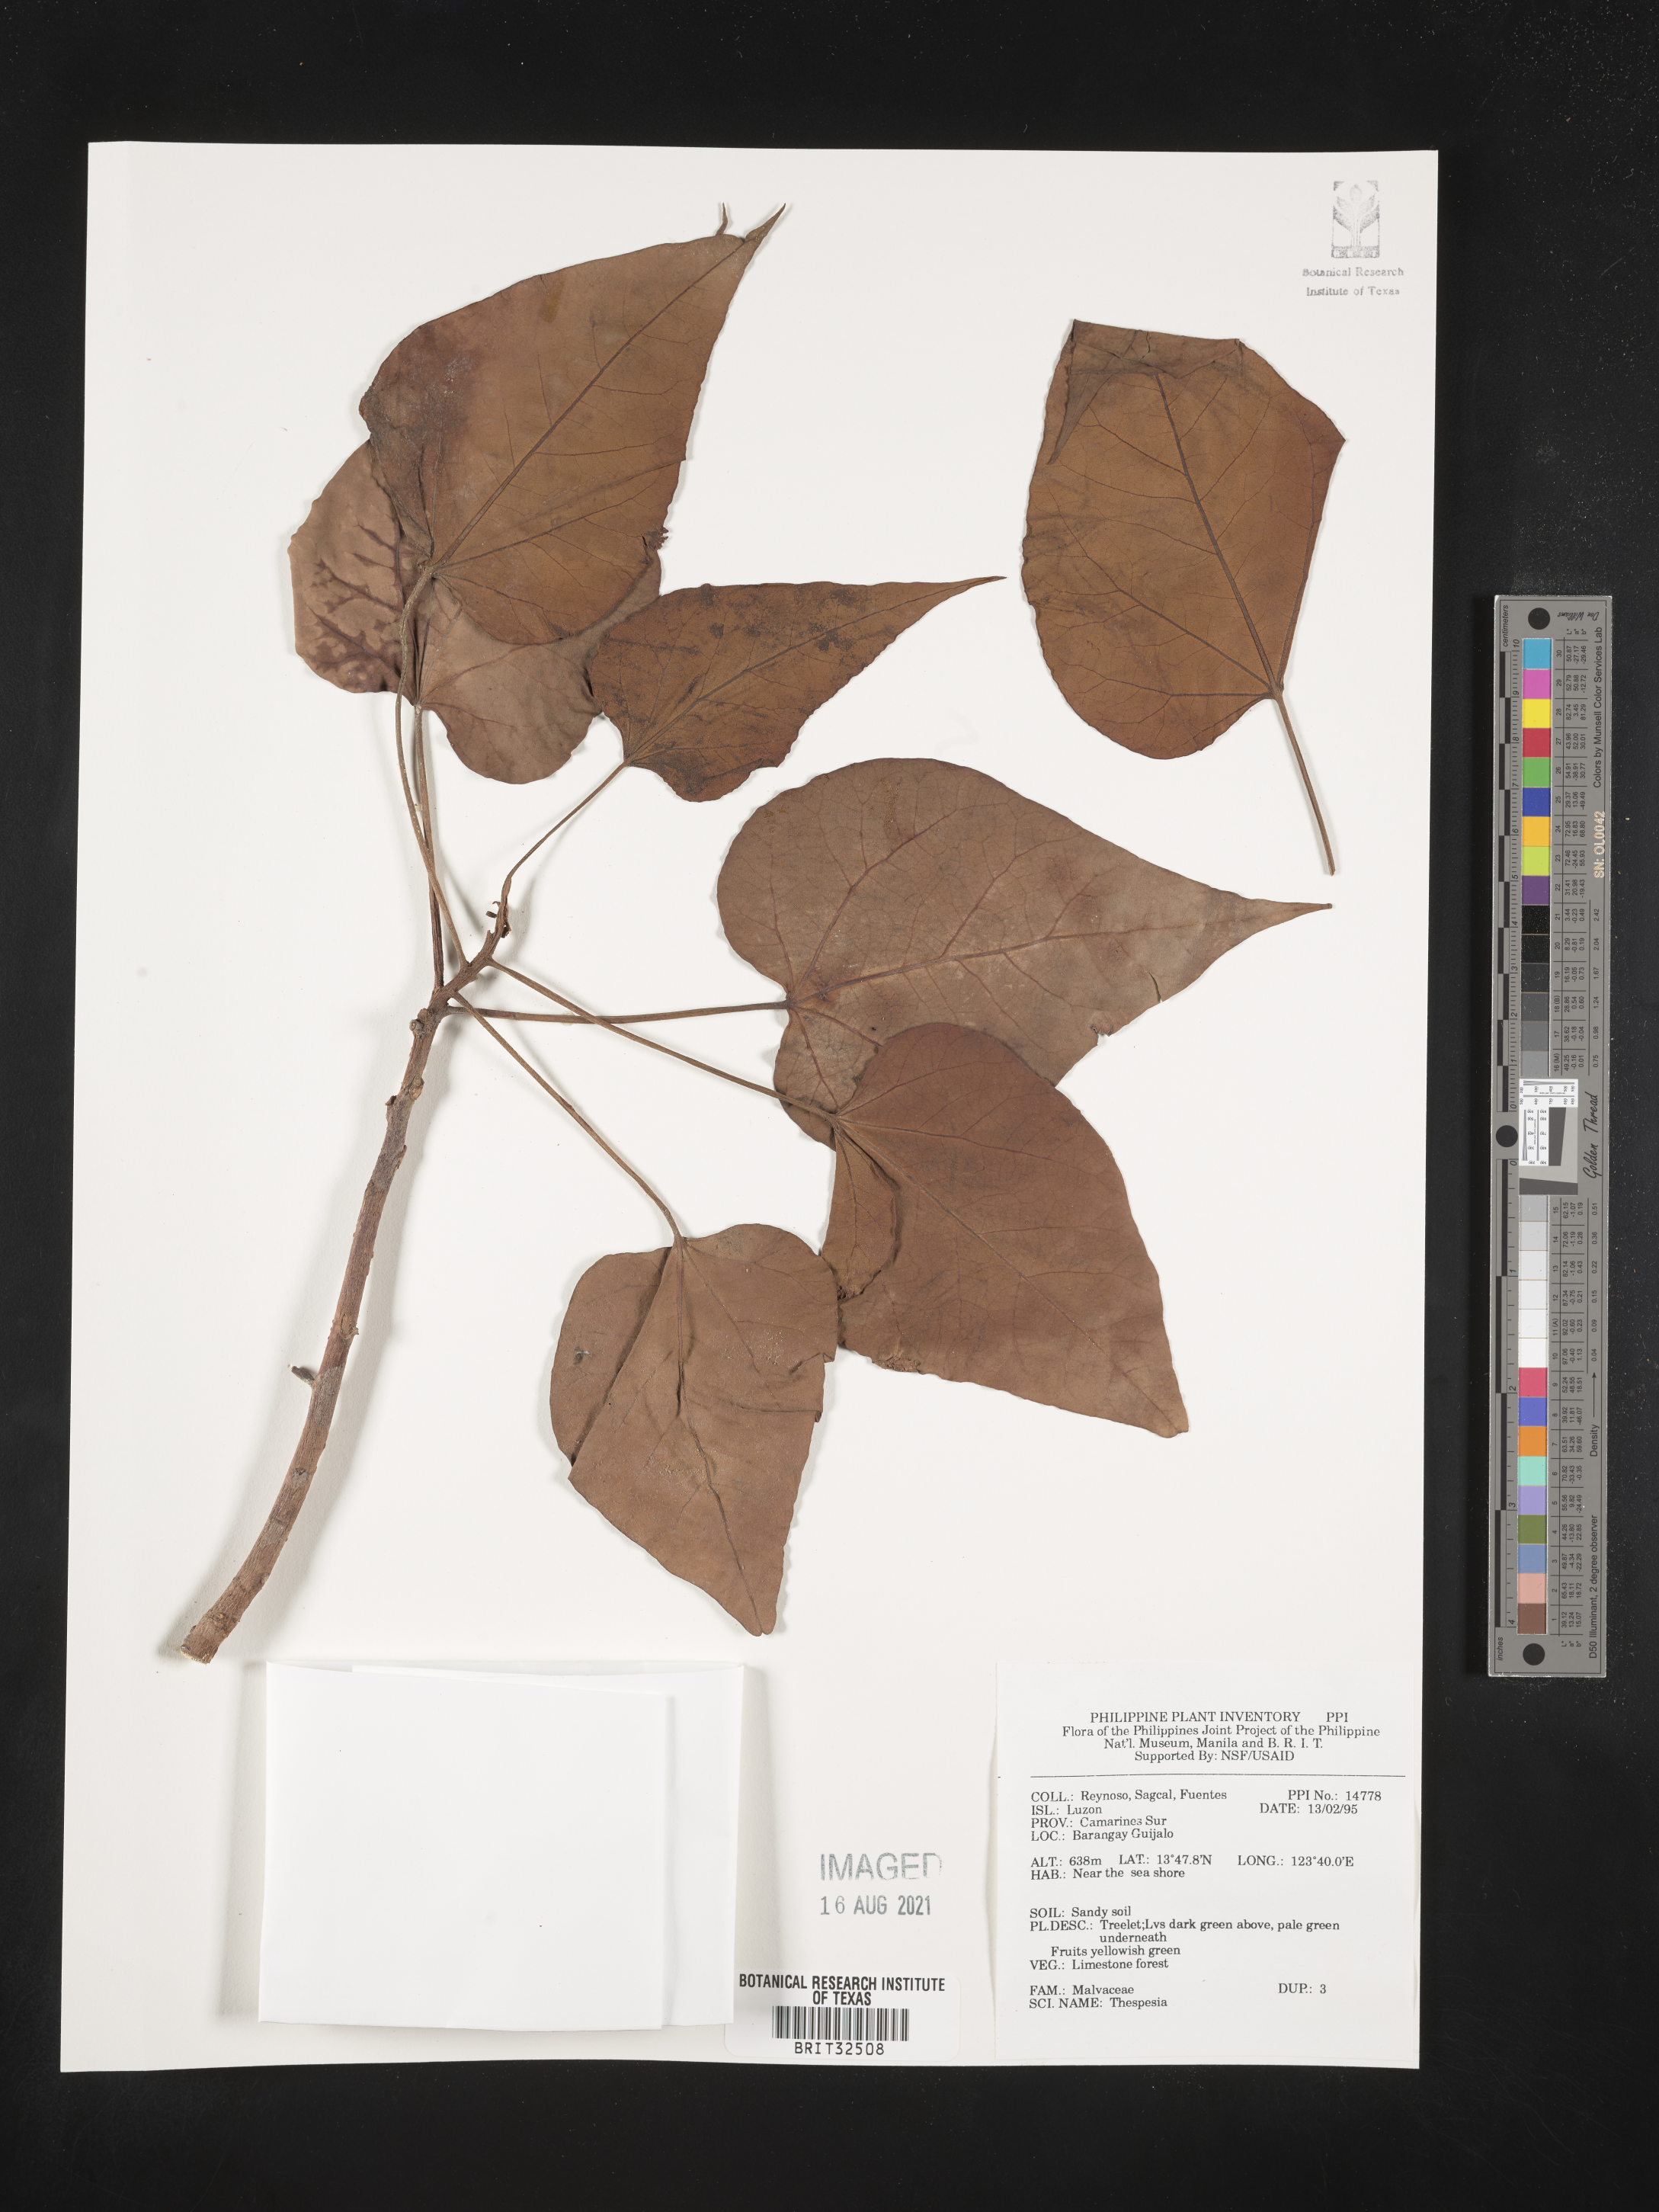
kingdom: Plantae
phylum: Tracheophyta
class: Magnoliopsida
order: Malvales
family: Malvaceae
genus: Thespesia
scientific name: Thespesia
